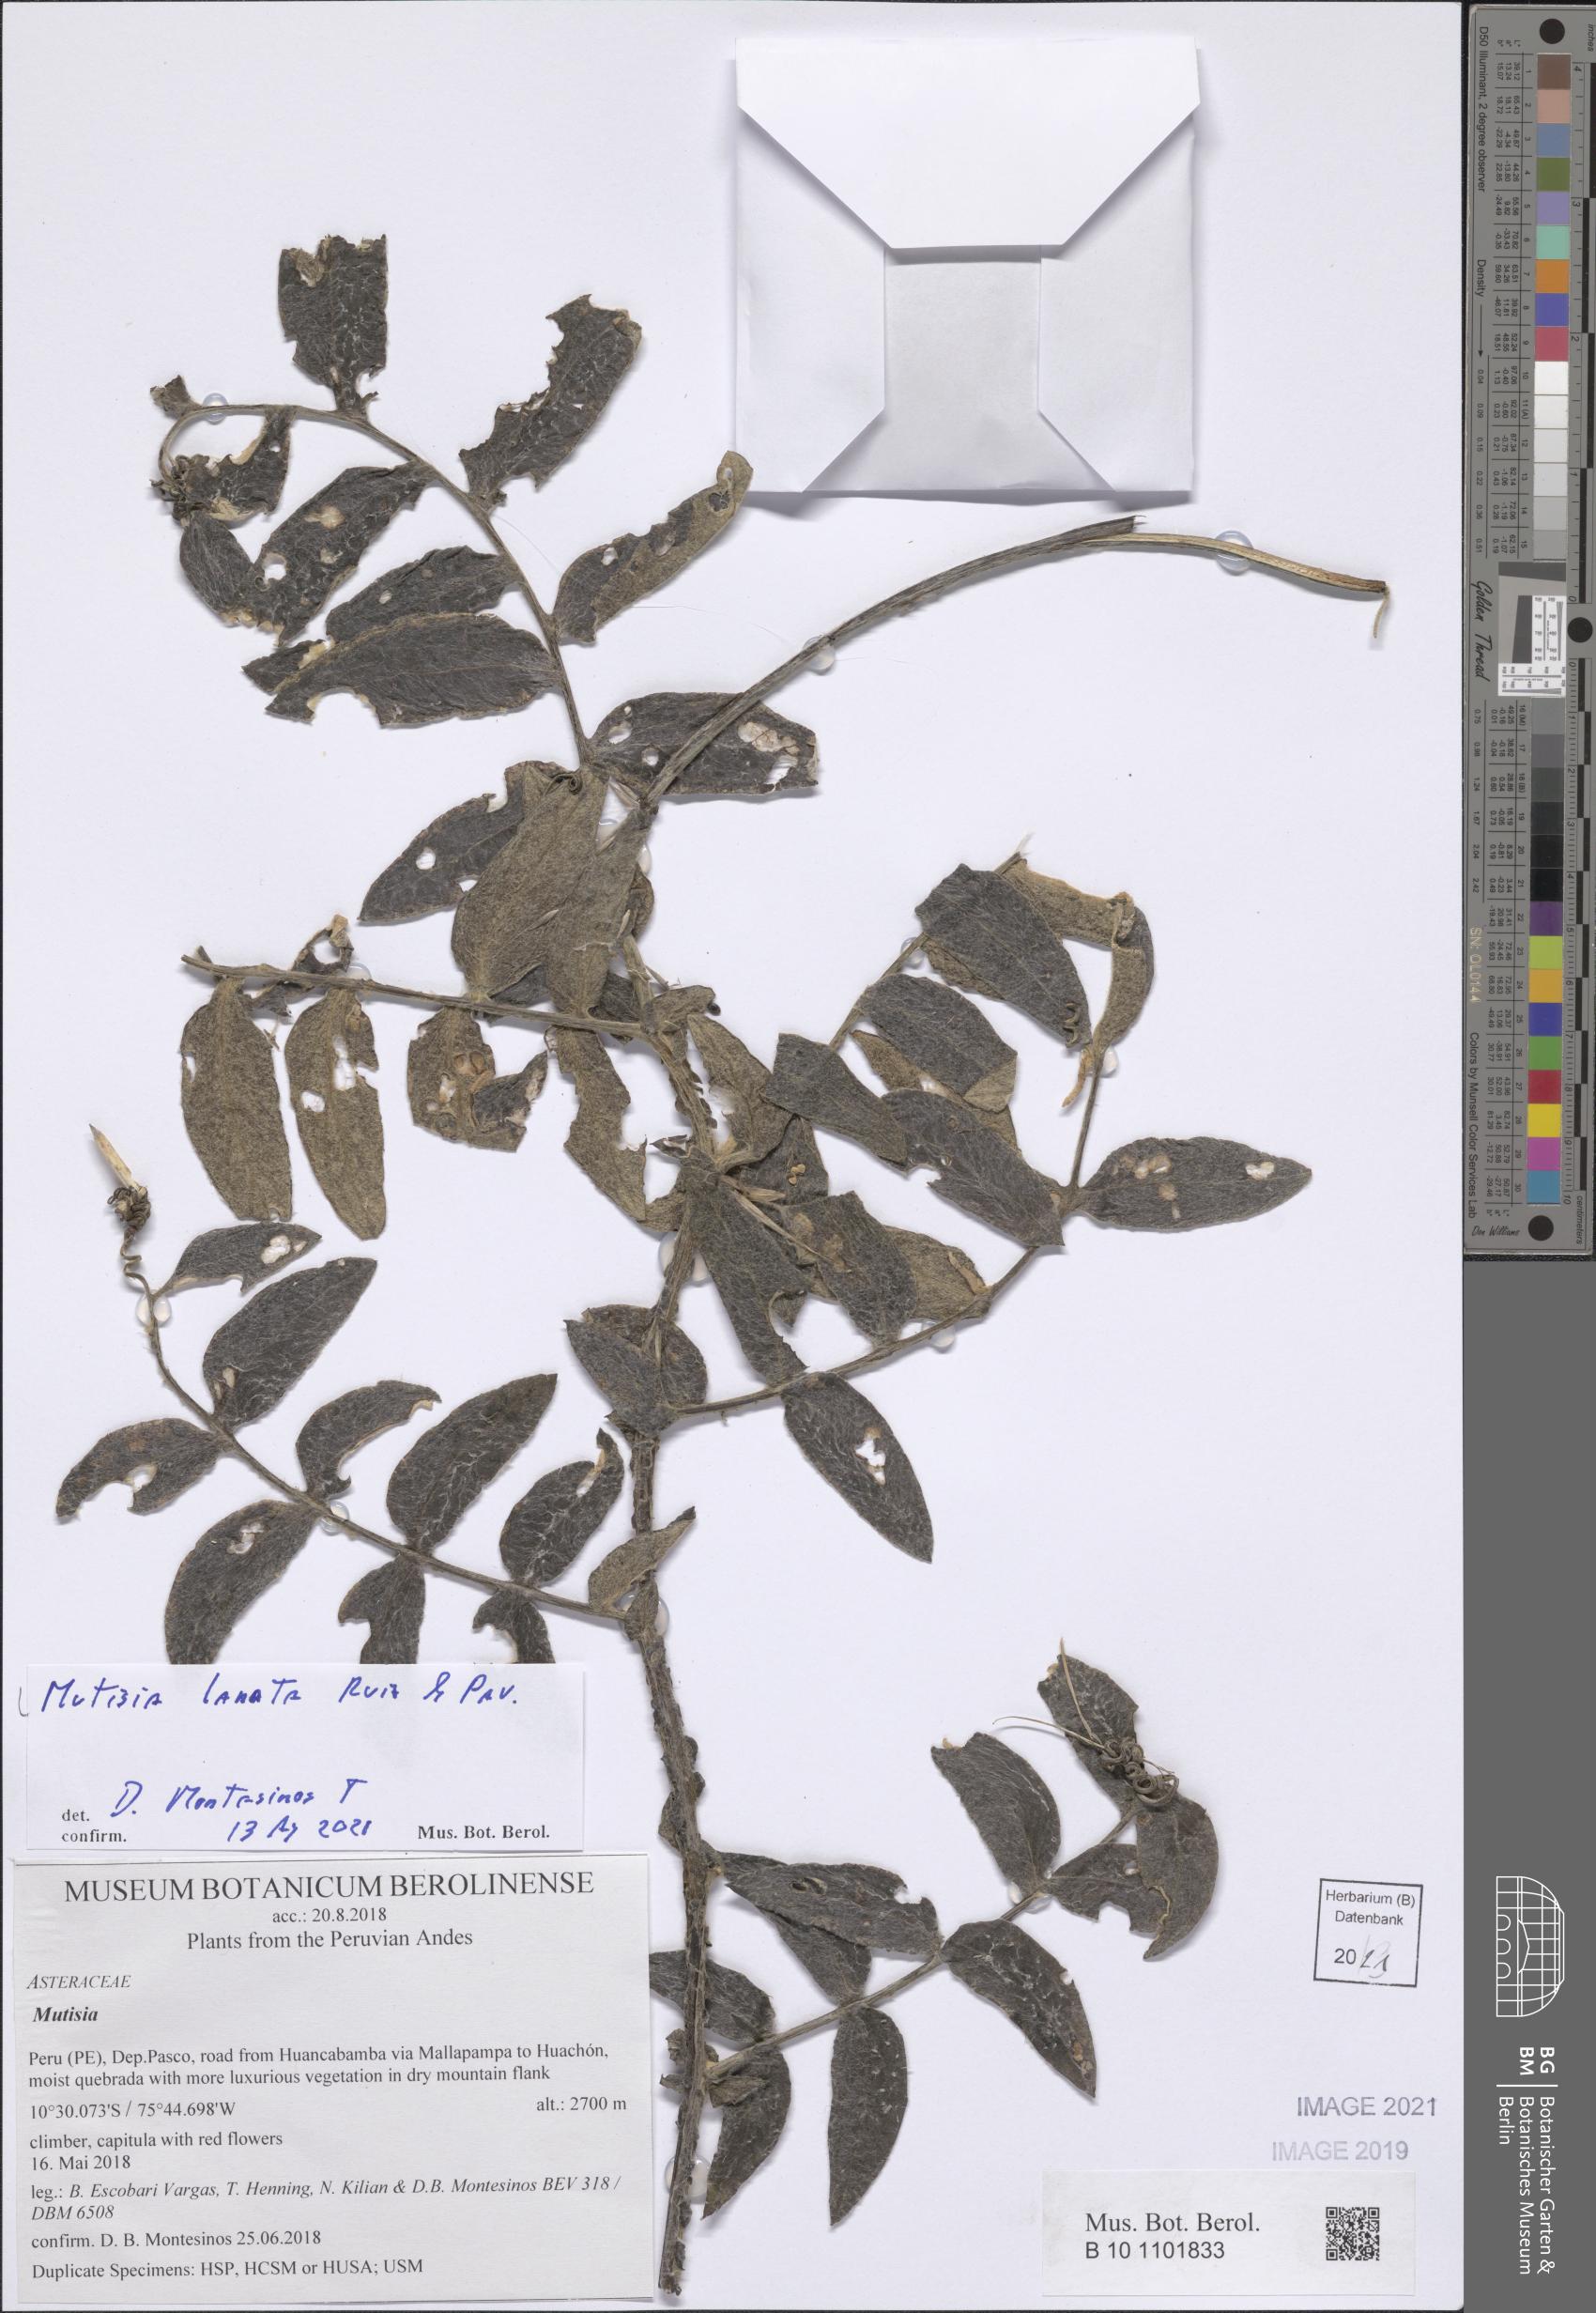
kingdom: Plantae
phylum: Tracheophyta
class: Magnoliopsida
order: Asterales
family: Asteraceae
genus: Mutisia
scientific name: Mutisia lanata
